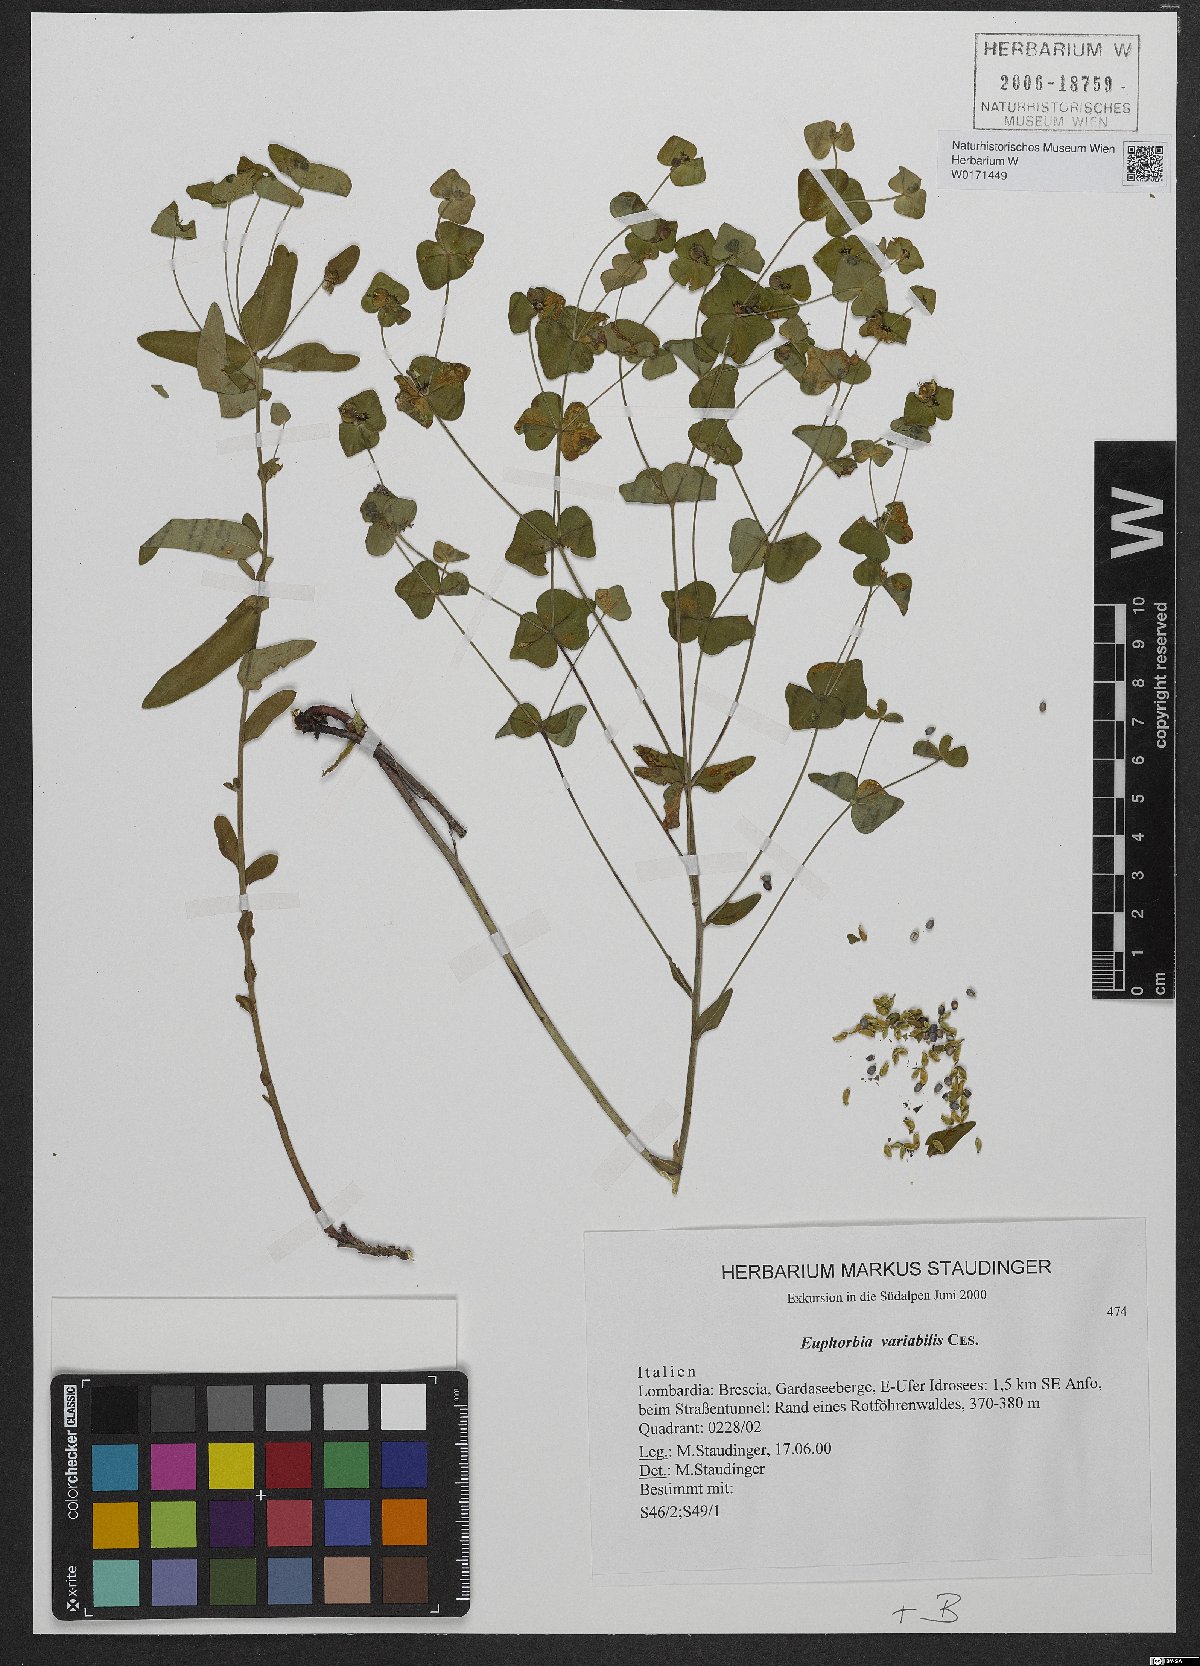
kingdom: Plantae
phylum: Tracheophyta
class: Magnoliopsida
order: Malpighiales
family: Euphorbiaceae
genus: Euphorbia
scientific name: Euphorbia variabilis
